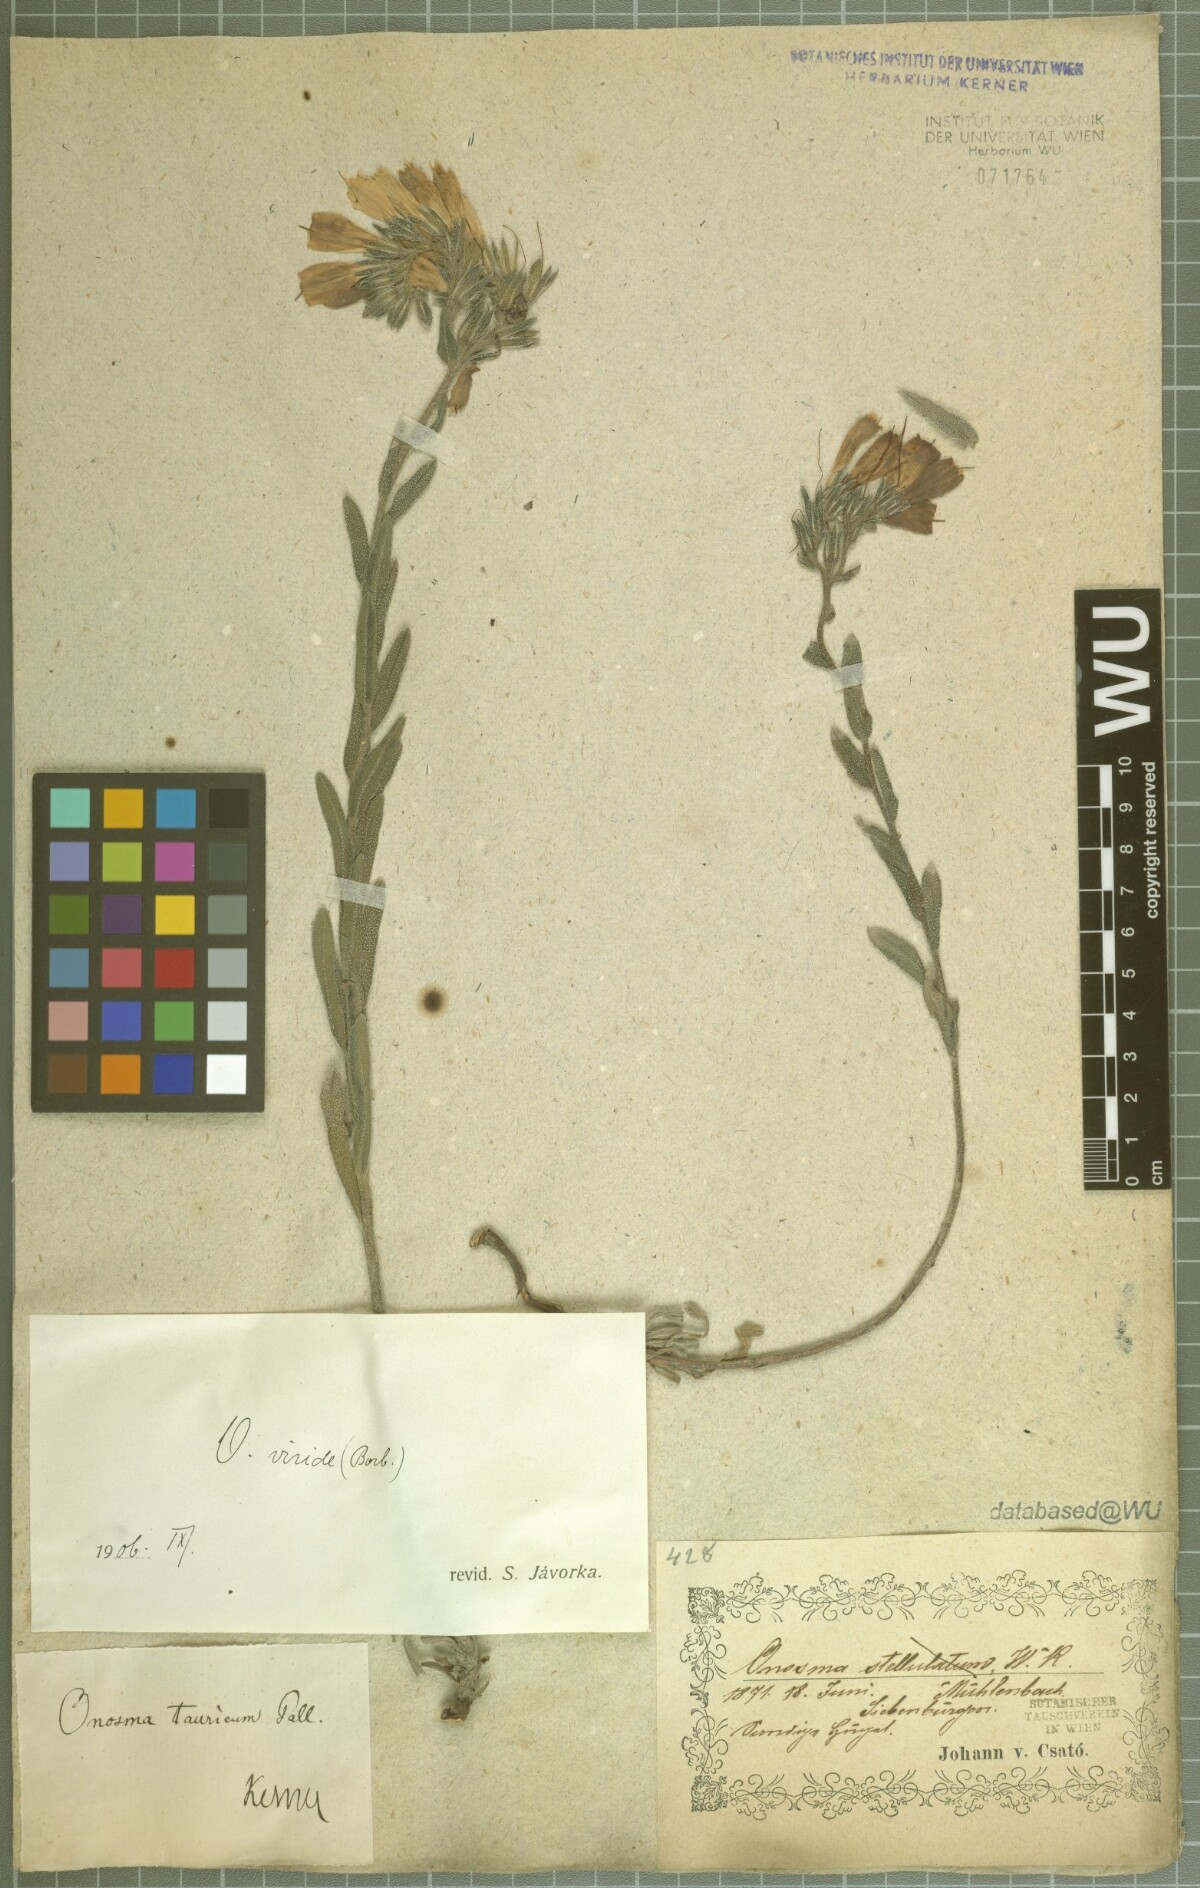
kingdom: Plantae
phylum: Tracheophyta
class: Magnoliopsida
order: Boraginales
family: Boraginaceae
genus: Onosma
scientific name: Onosma viridis
